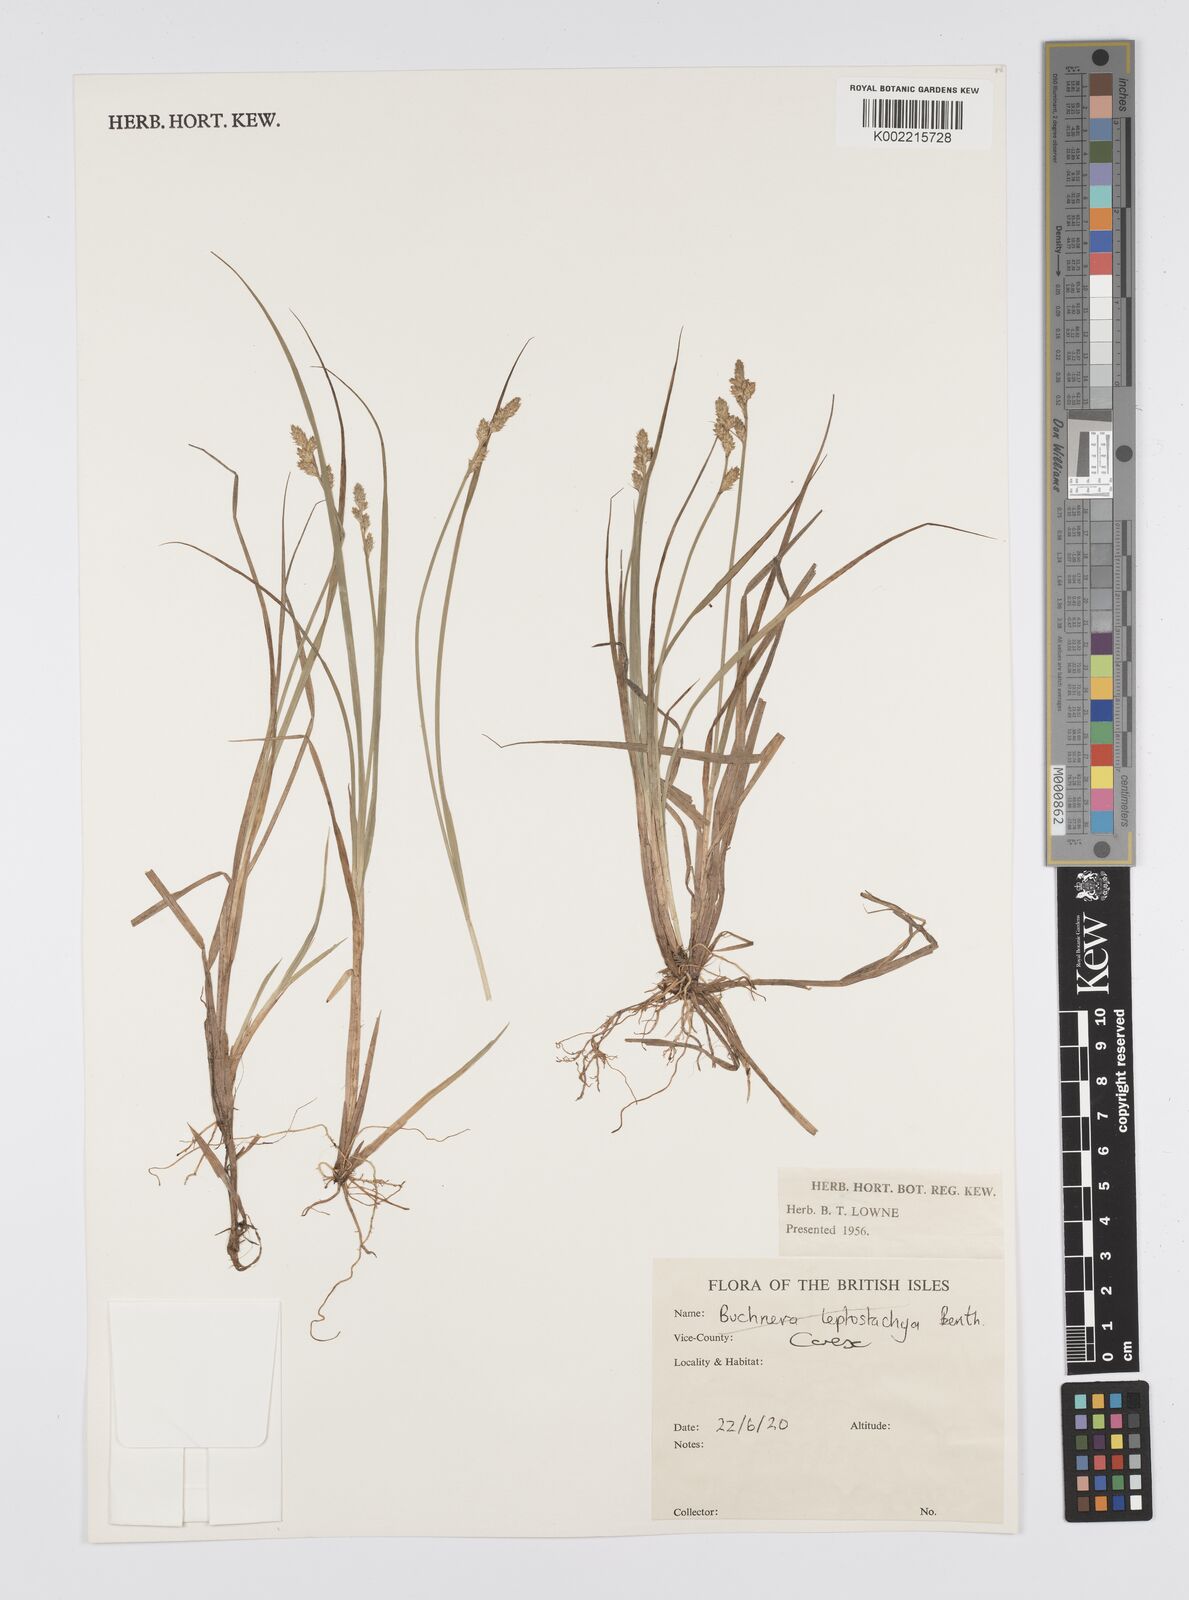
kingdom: Plantae
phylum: Tracheophyta
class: Liliopsida
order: Poales
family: Cyperaceae
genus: Carex
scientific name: Carex
